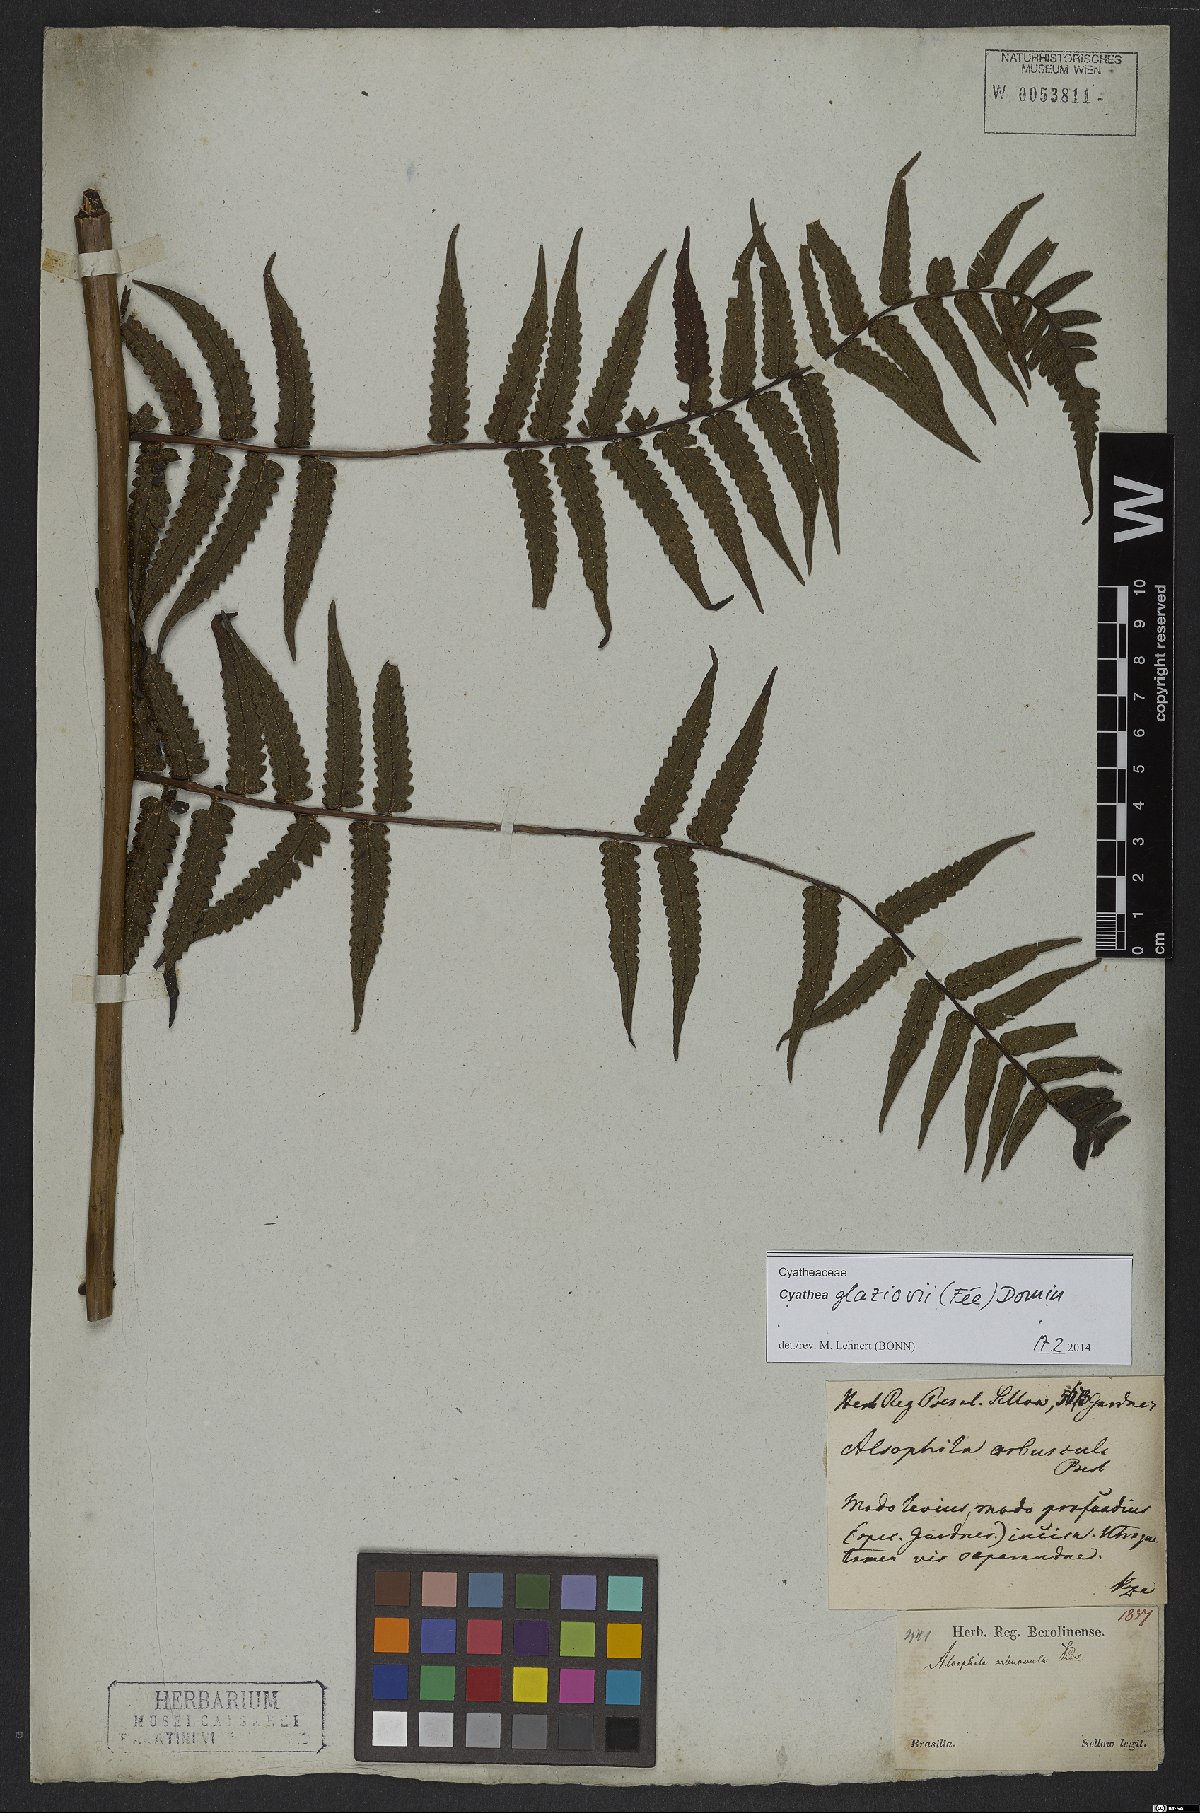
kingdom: Plantae
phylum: Tracheophyta
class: Polypodiopsida
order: Cyatheales
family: Cyatheaceae
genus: Cyathea
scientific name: Cyathea glaziovii
